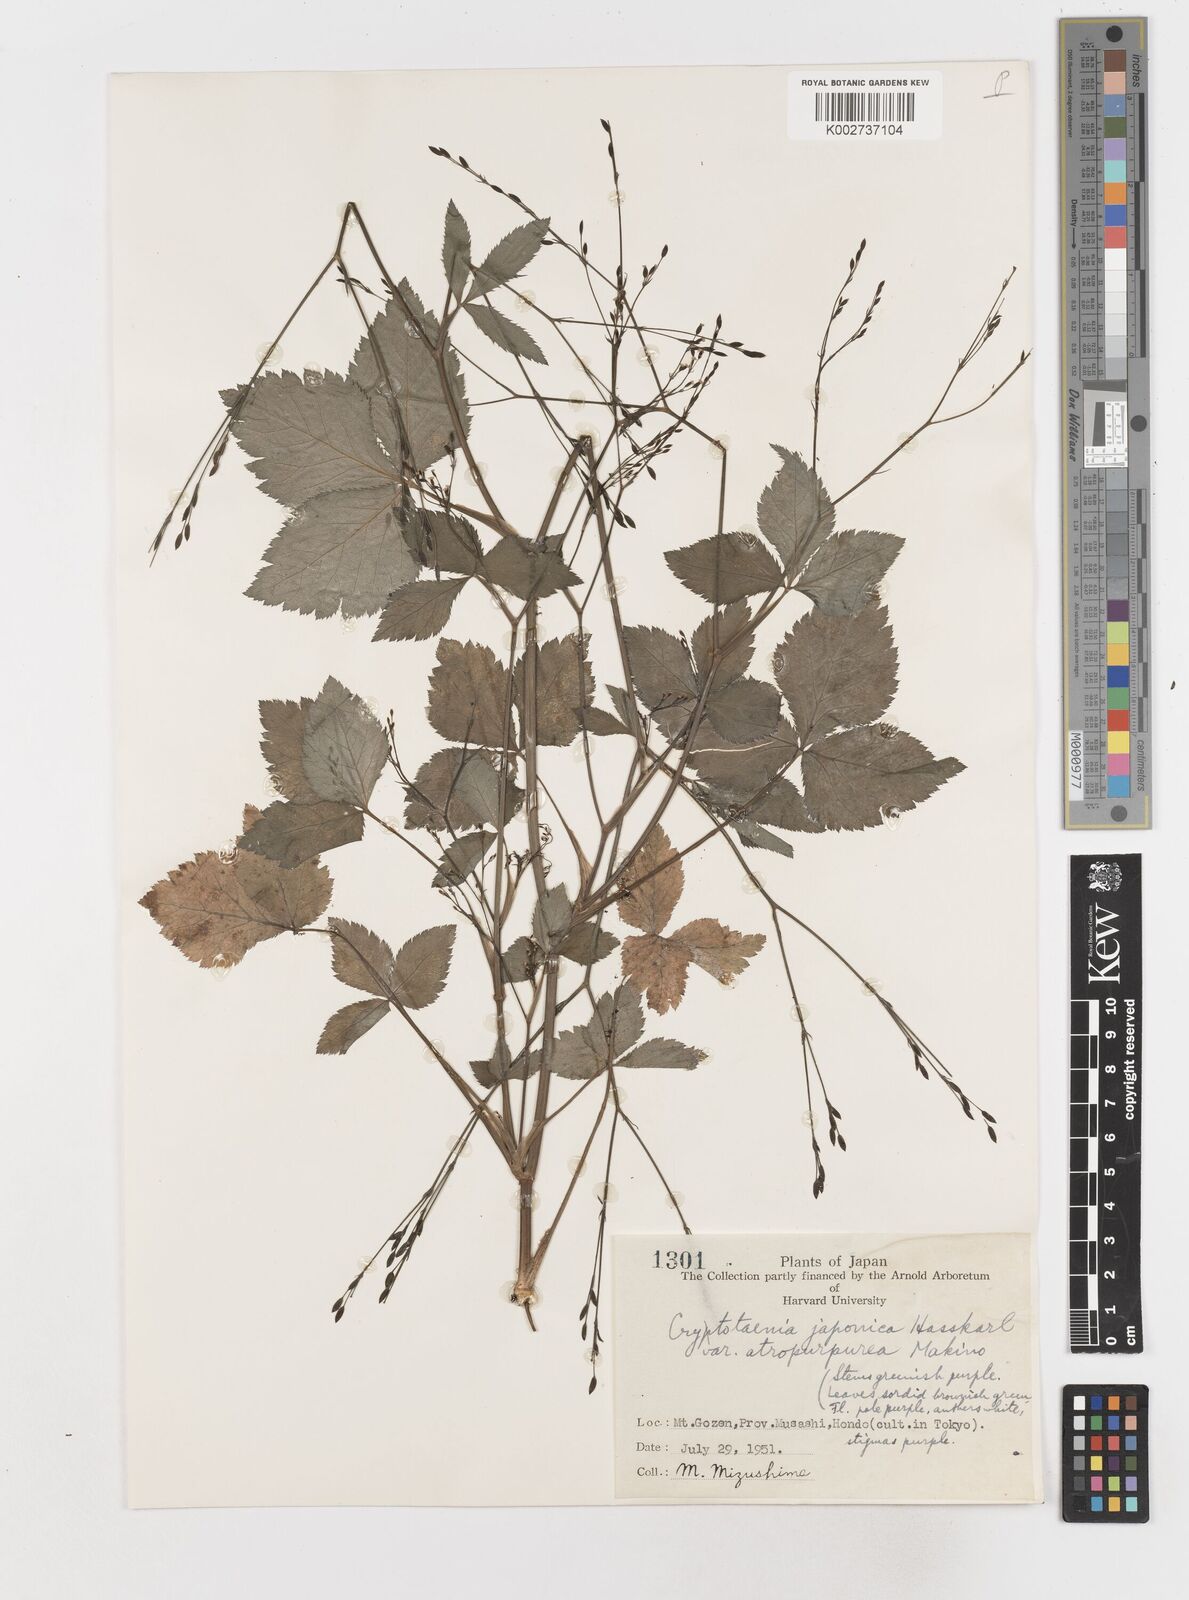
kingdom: Plantae
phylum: Tracheophyta
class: Magnoliopsida
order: Apiales
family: Apiaceae
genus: Cryptotaenia
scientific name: Cryptotaenia japonica
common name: Japanese cryptotaenia
